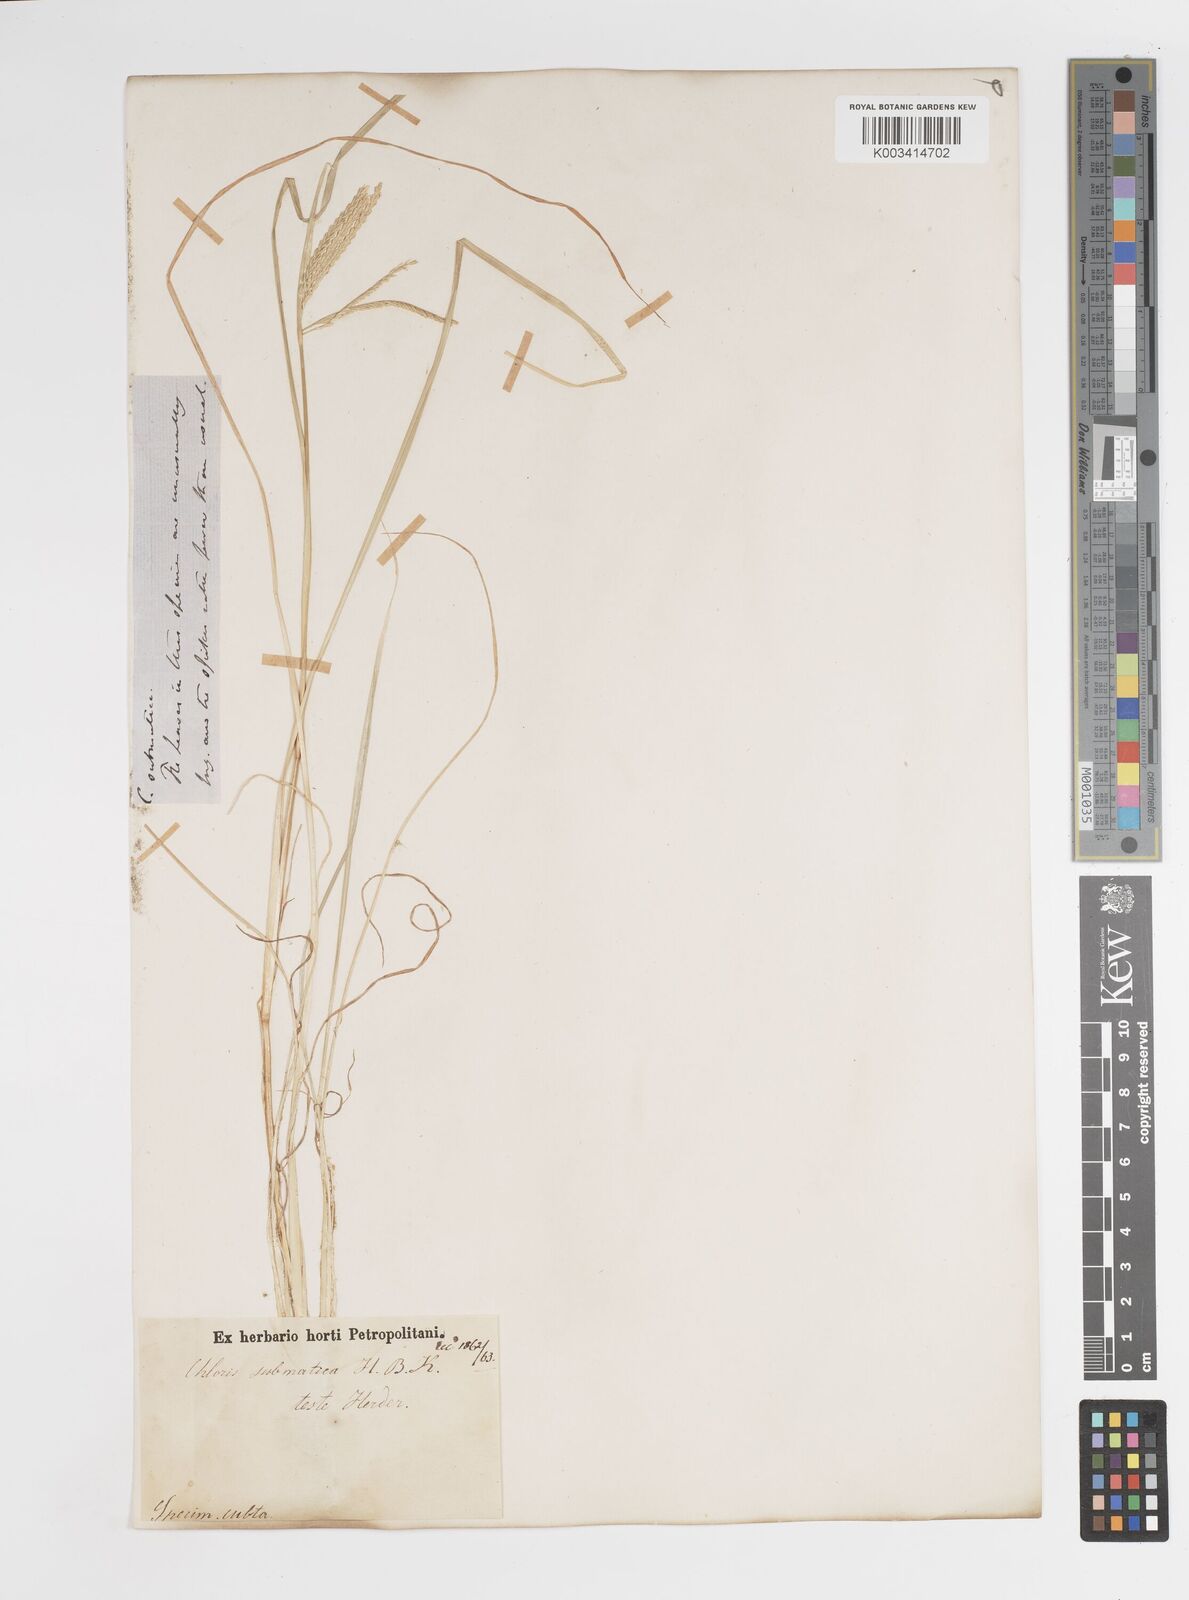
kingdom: Plantae
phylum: Tracheophyta
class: Liliopsida
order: Poales
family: Poaceae
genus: Chloris
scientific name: Chloris submutica
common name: Mexican windmill grass
